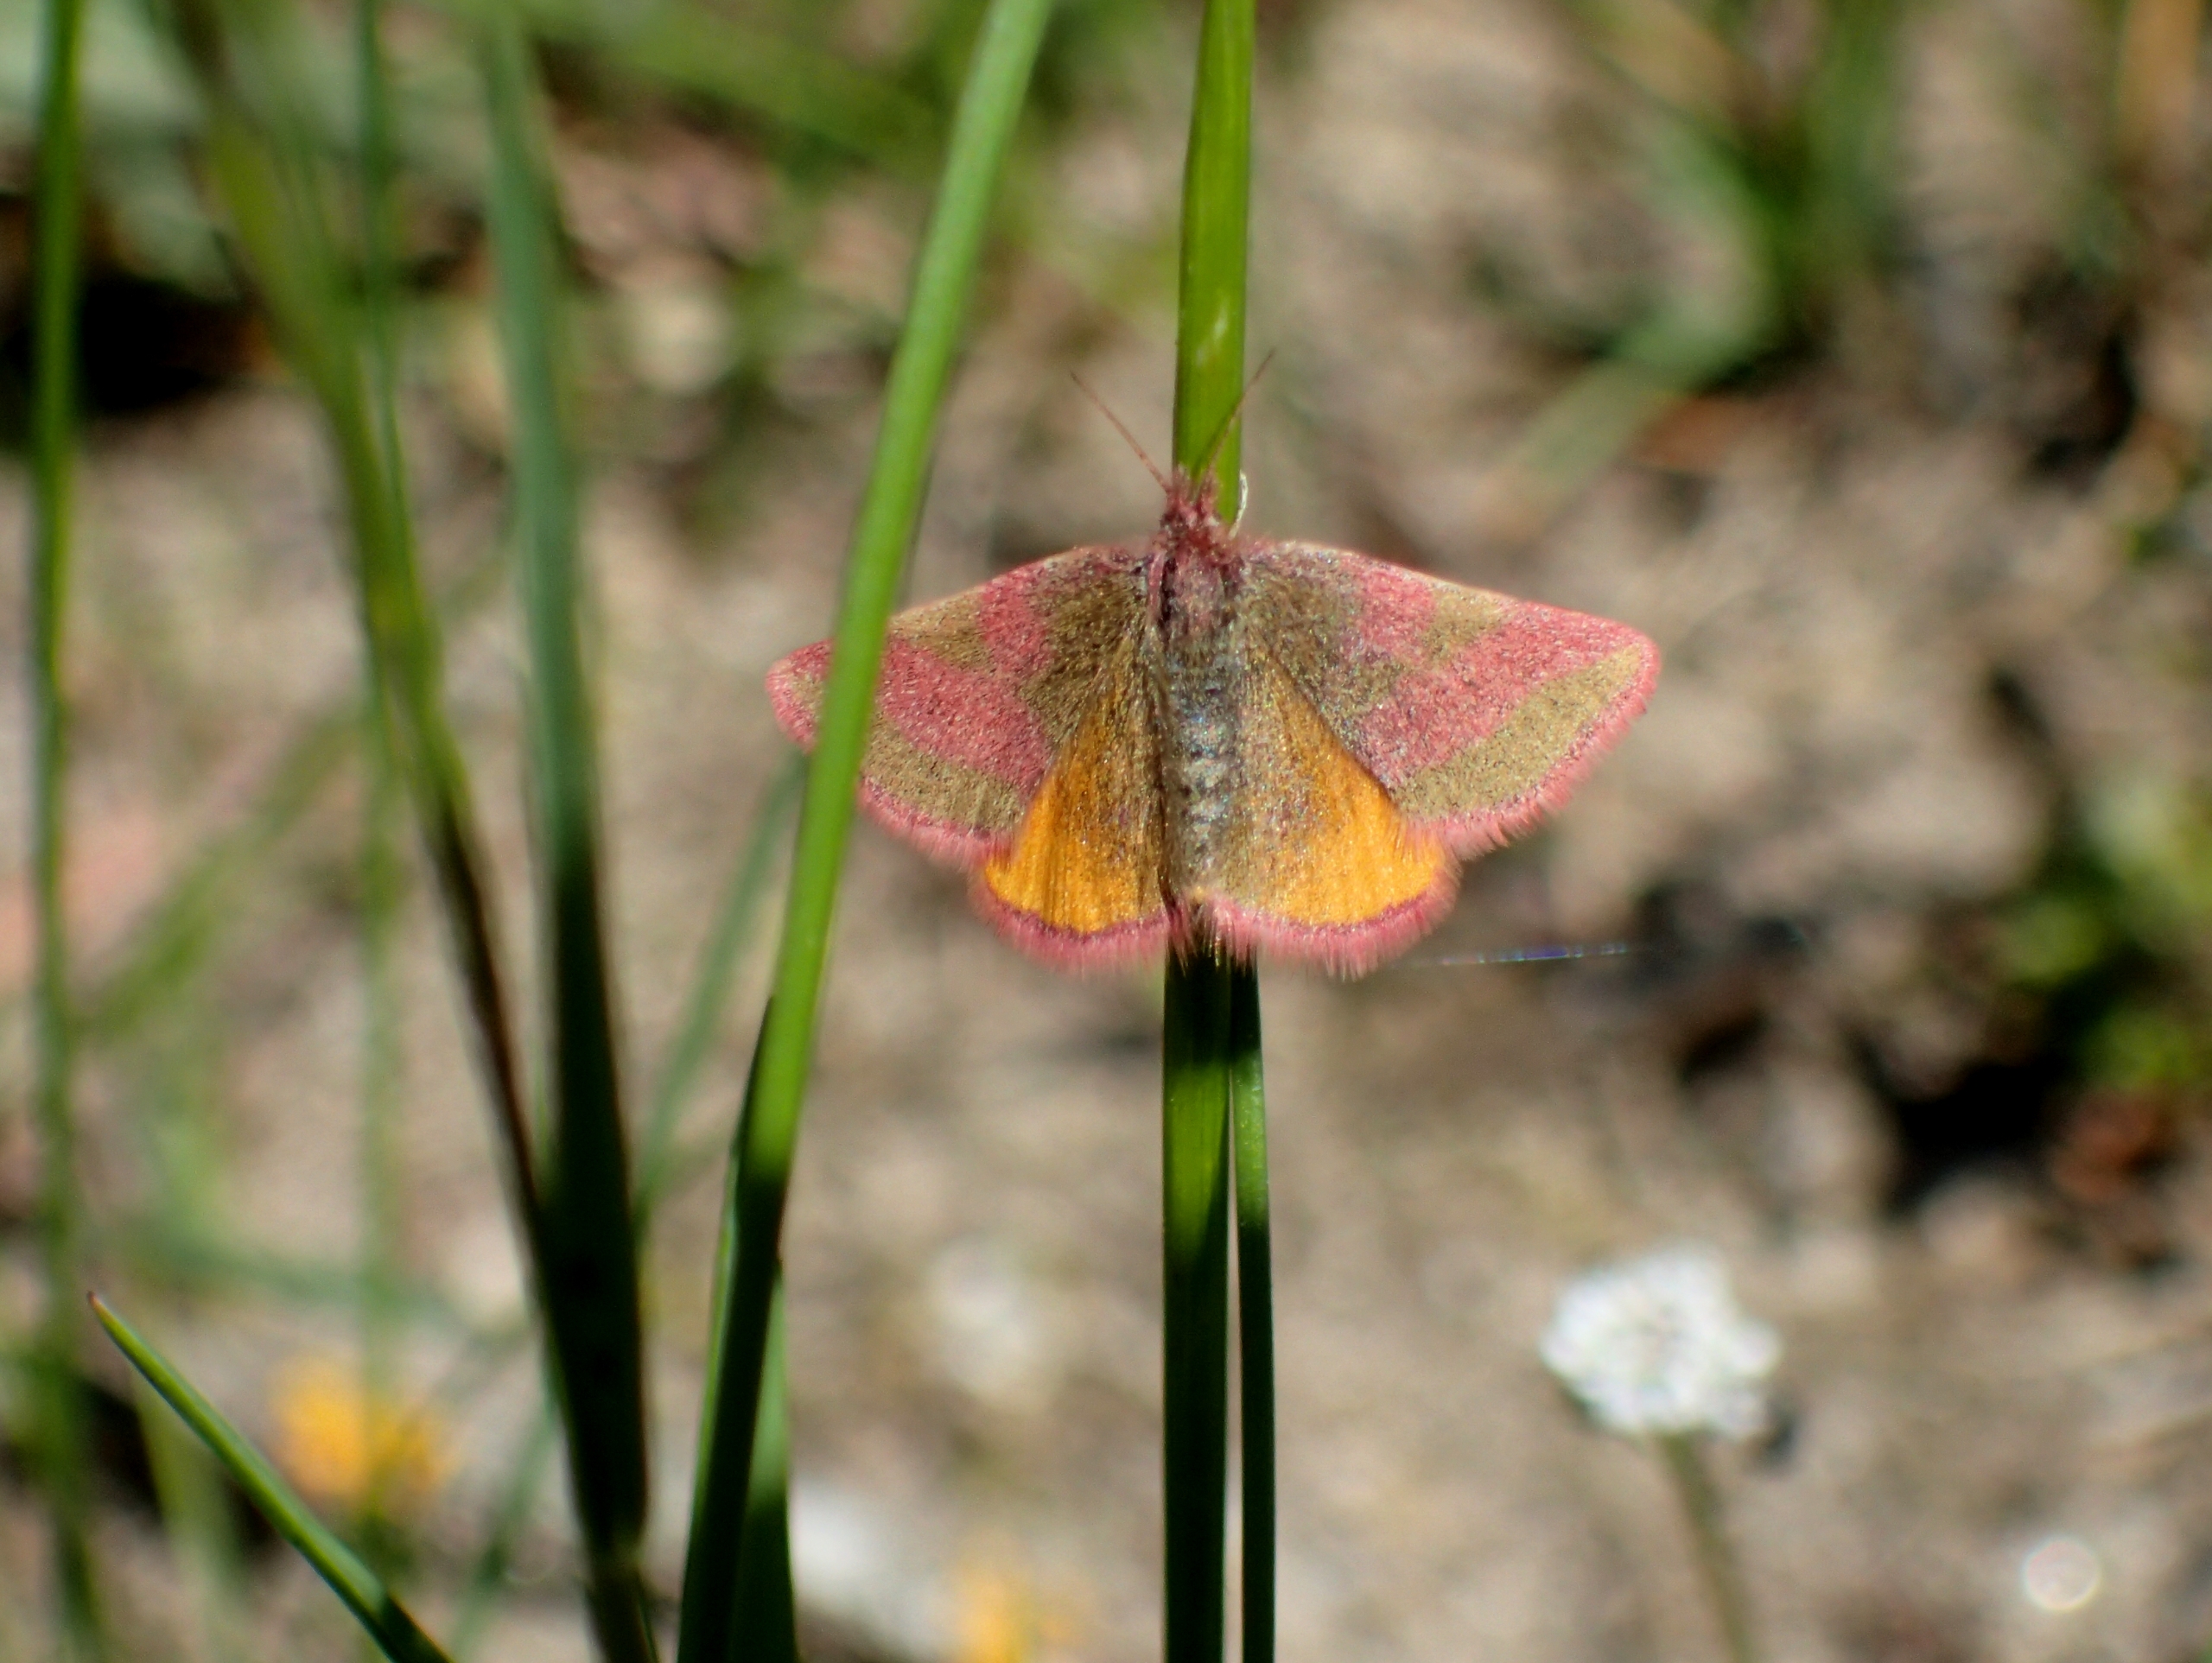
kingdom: Animalia
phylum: Arthropoda
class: Insecta
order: Lepidoptera
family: Geometridae
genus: Lythria
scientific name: Lythria cruentaria
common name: Purpurmåler
